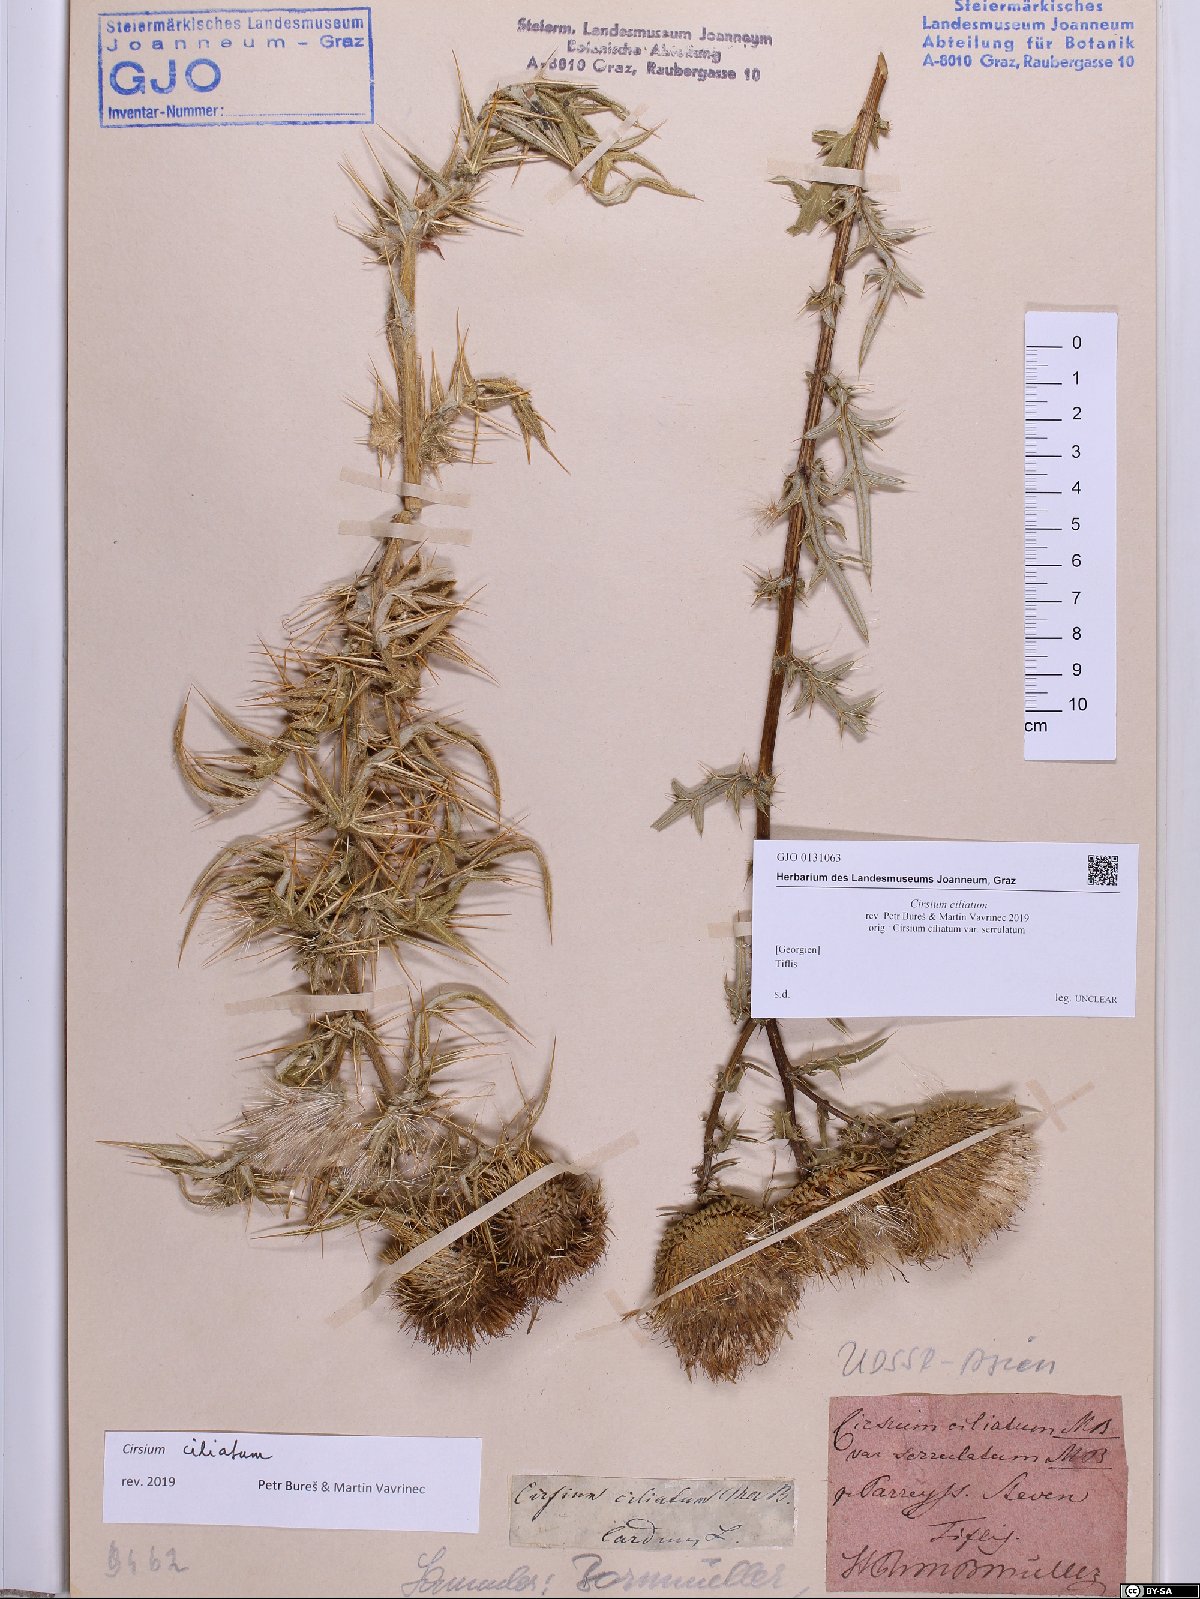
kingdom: Plantae
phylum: Tracheophyta
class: Magnoliopsida
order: Asterales
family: Asteraceae
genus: Lophiolepis
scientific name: Lophiolepis ciliata
